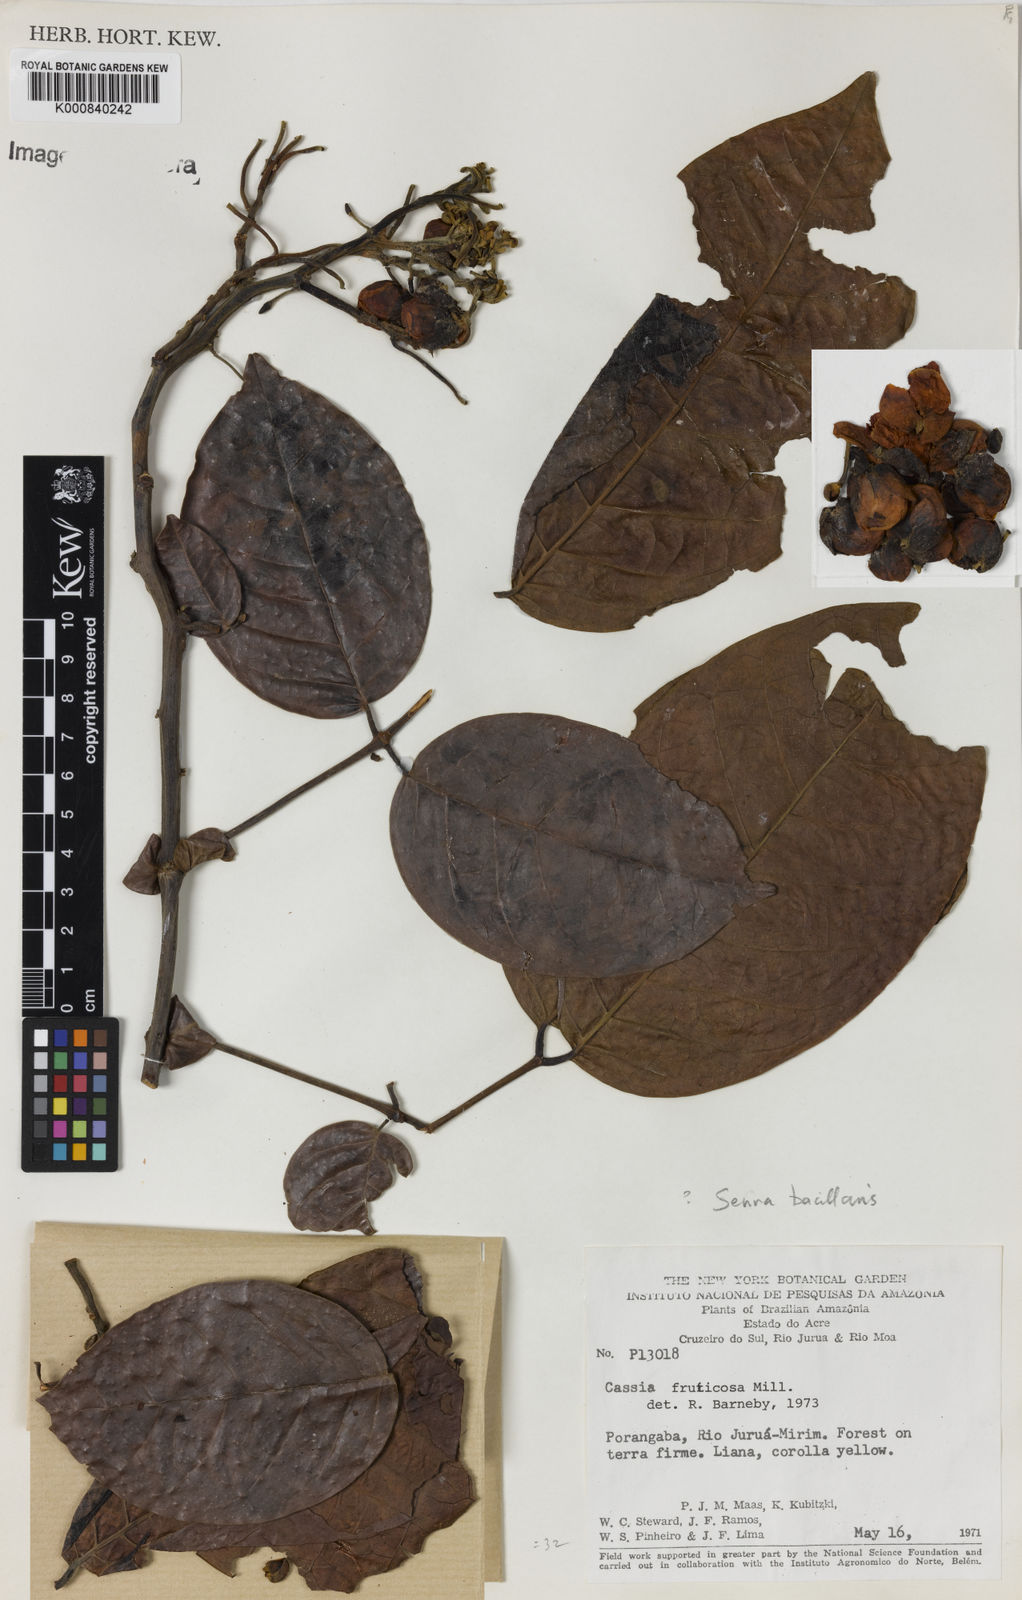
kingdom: Plantae
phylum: Tracheophyta
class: Magnoliopsida
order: Fabales
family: Fabaceae
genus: Senna
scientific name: Senna bacillaris
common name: West indian showertree
